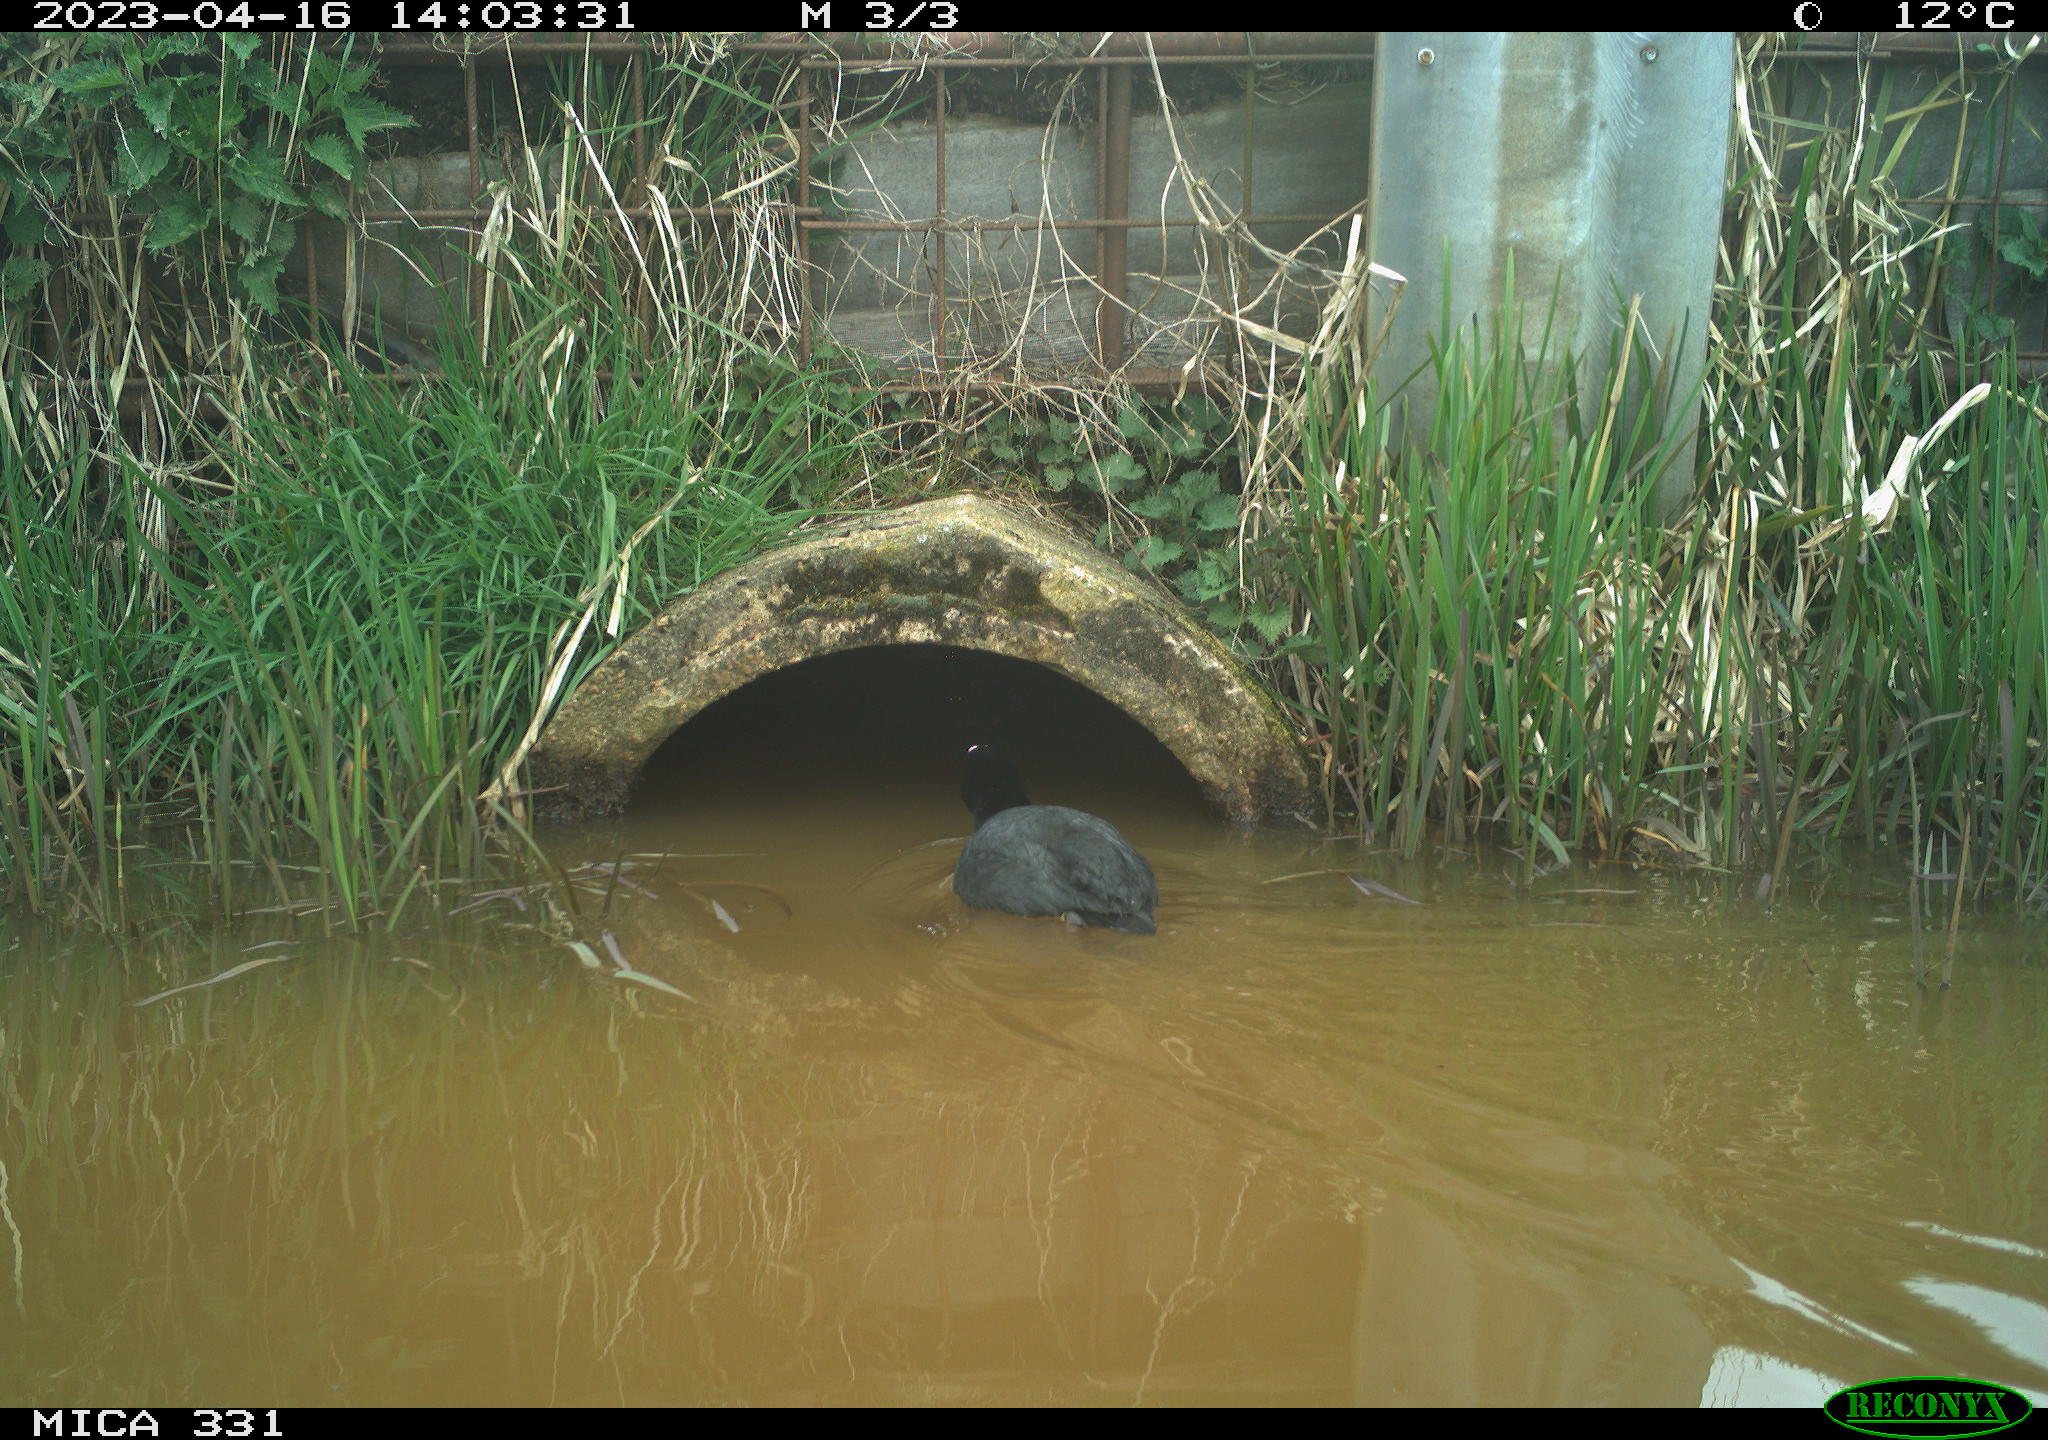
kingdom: Animalia
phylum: Chordata
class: Aves
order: Gruiformes
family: Rallidae
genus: Fulica
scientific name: Fulica atra
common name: Eurasian coot
